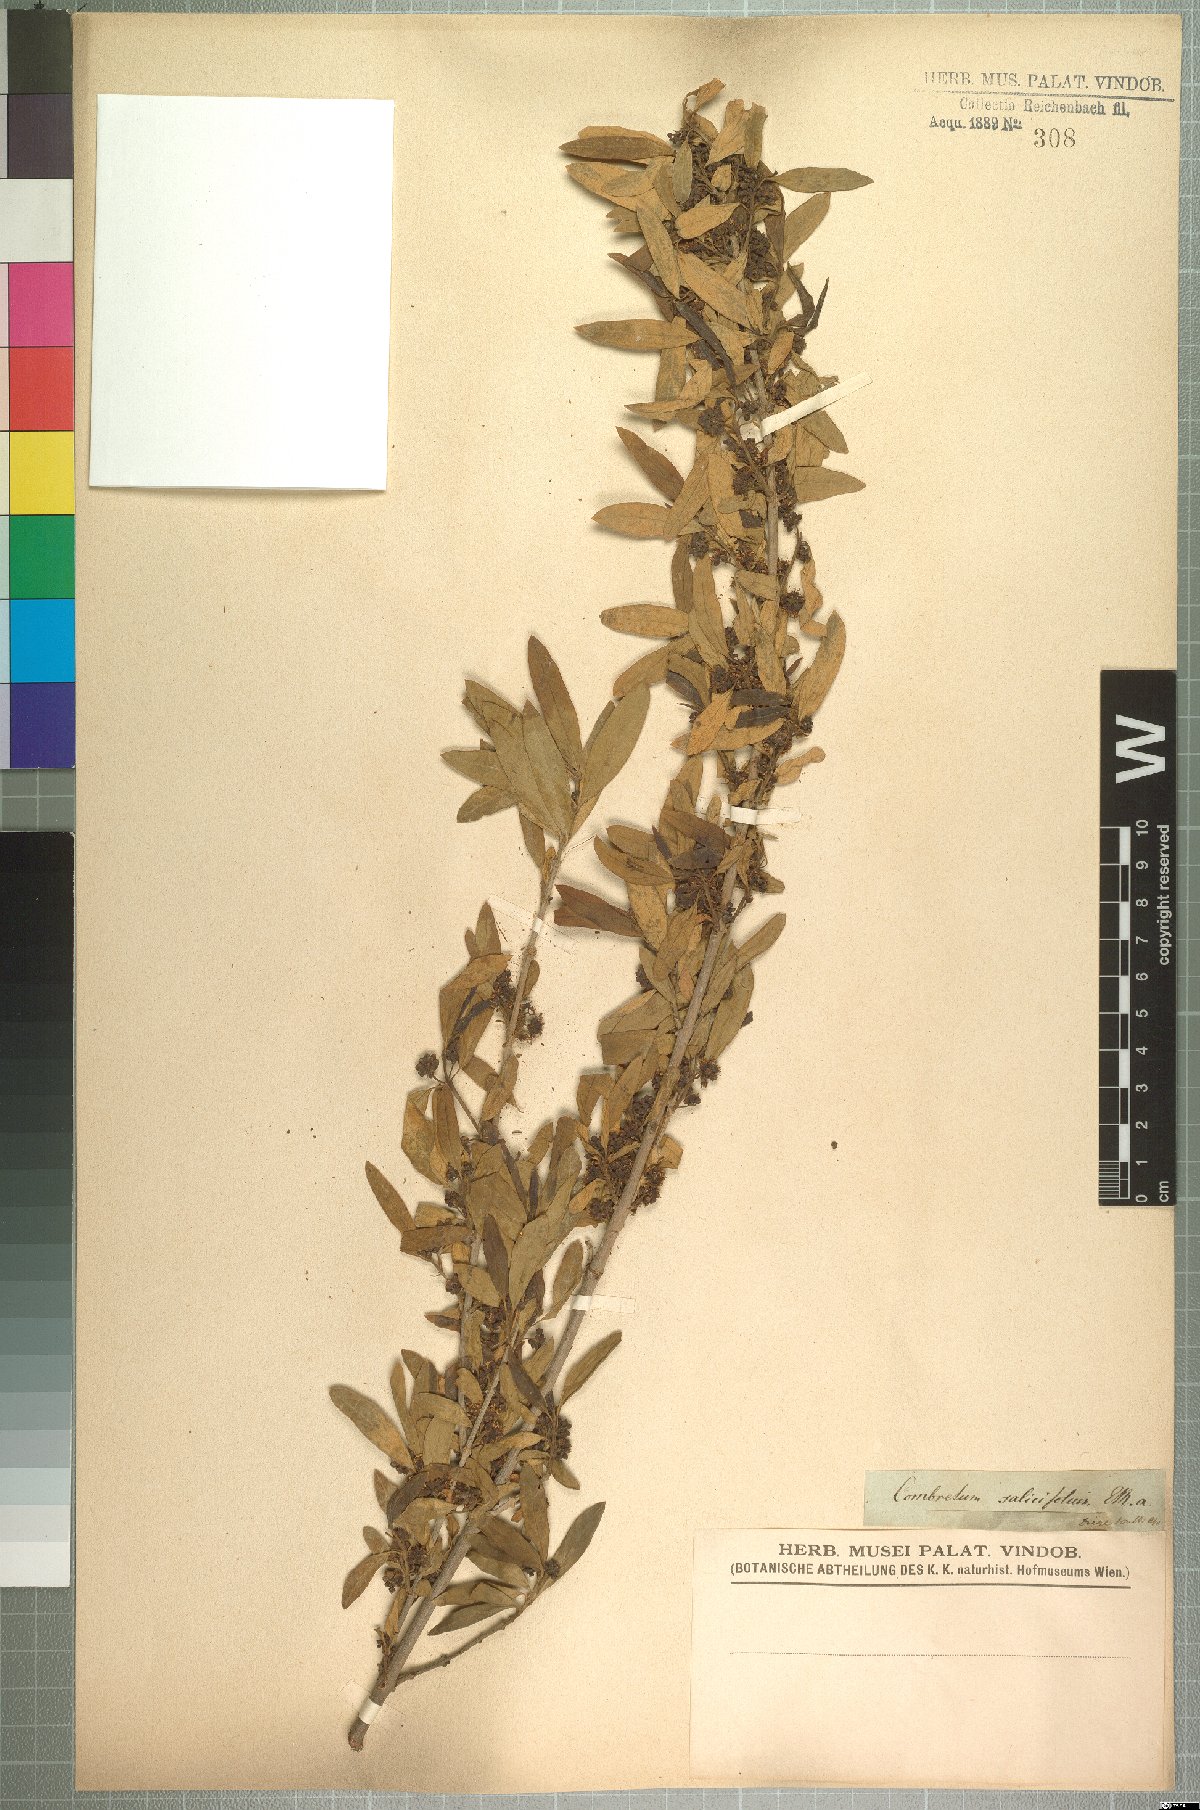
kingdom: Plantae
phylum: Tracheophyta
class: Magnoliopsida
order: Myrtales
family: Combretaceae
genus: Combretum
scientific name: Combretum caffrum
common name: Cape bushwillow
